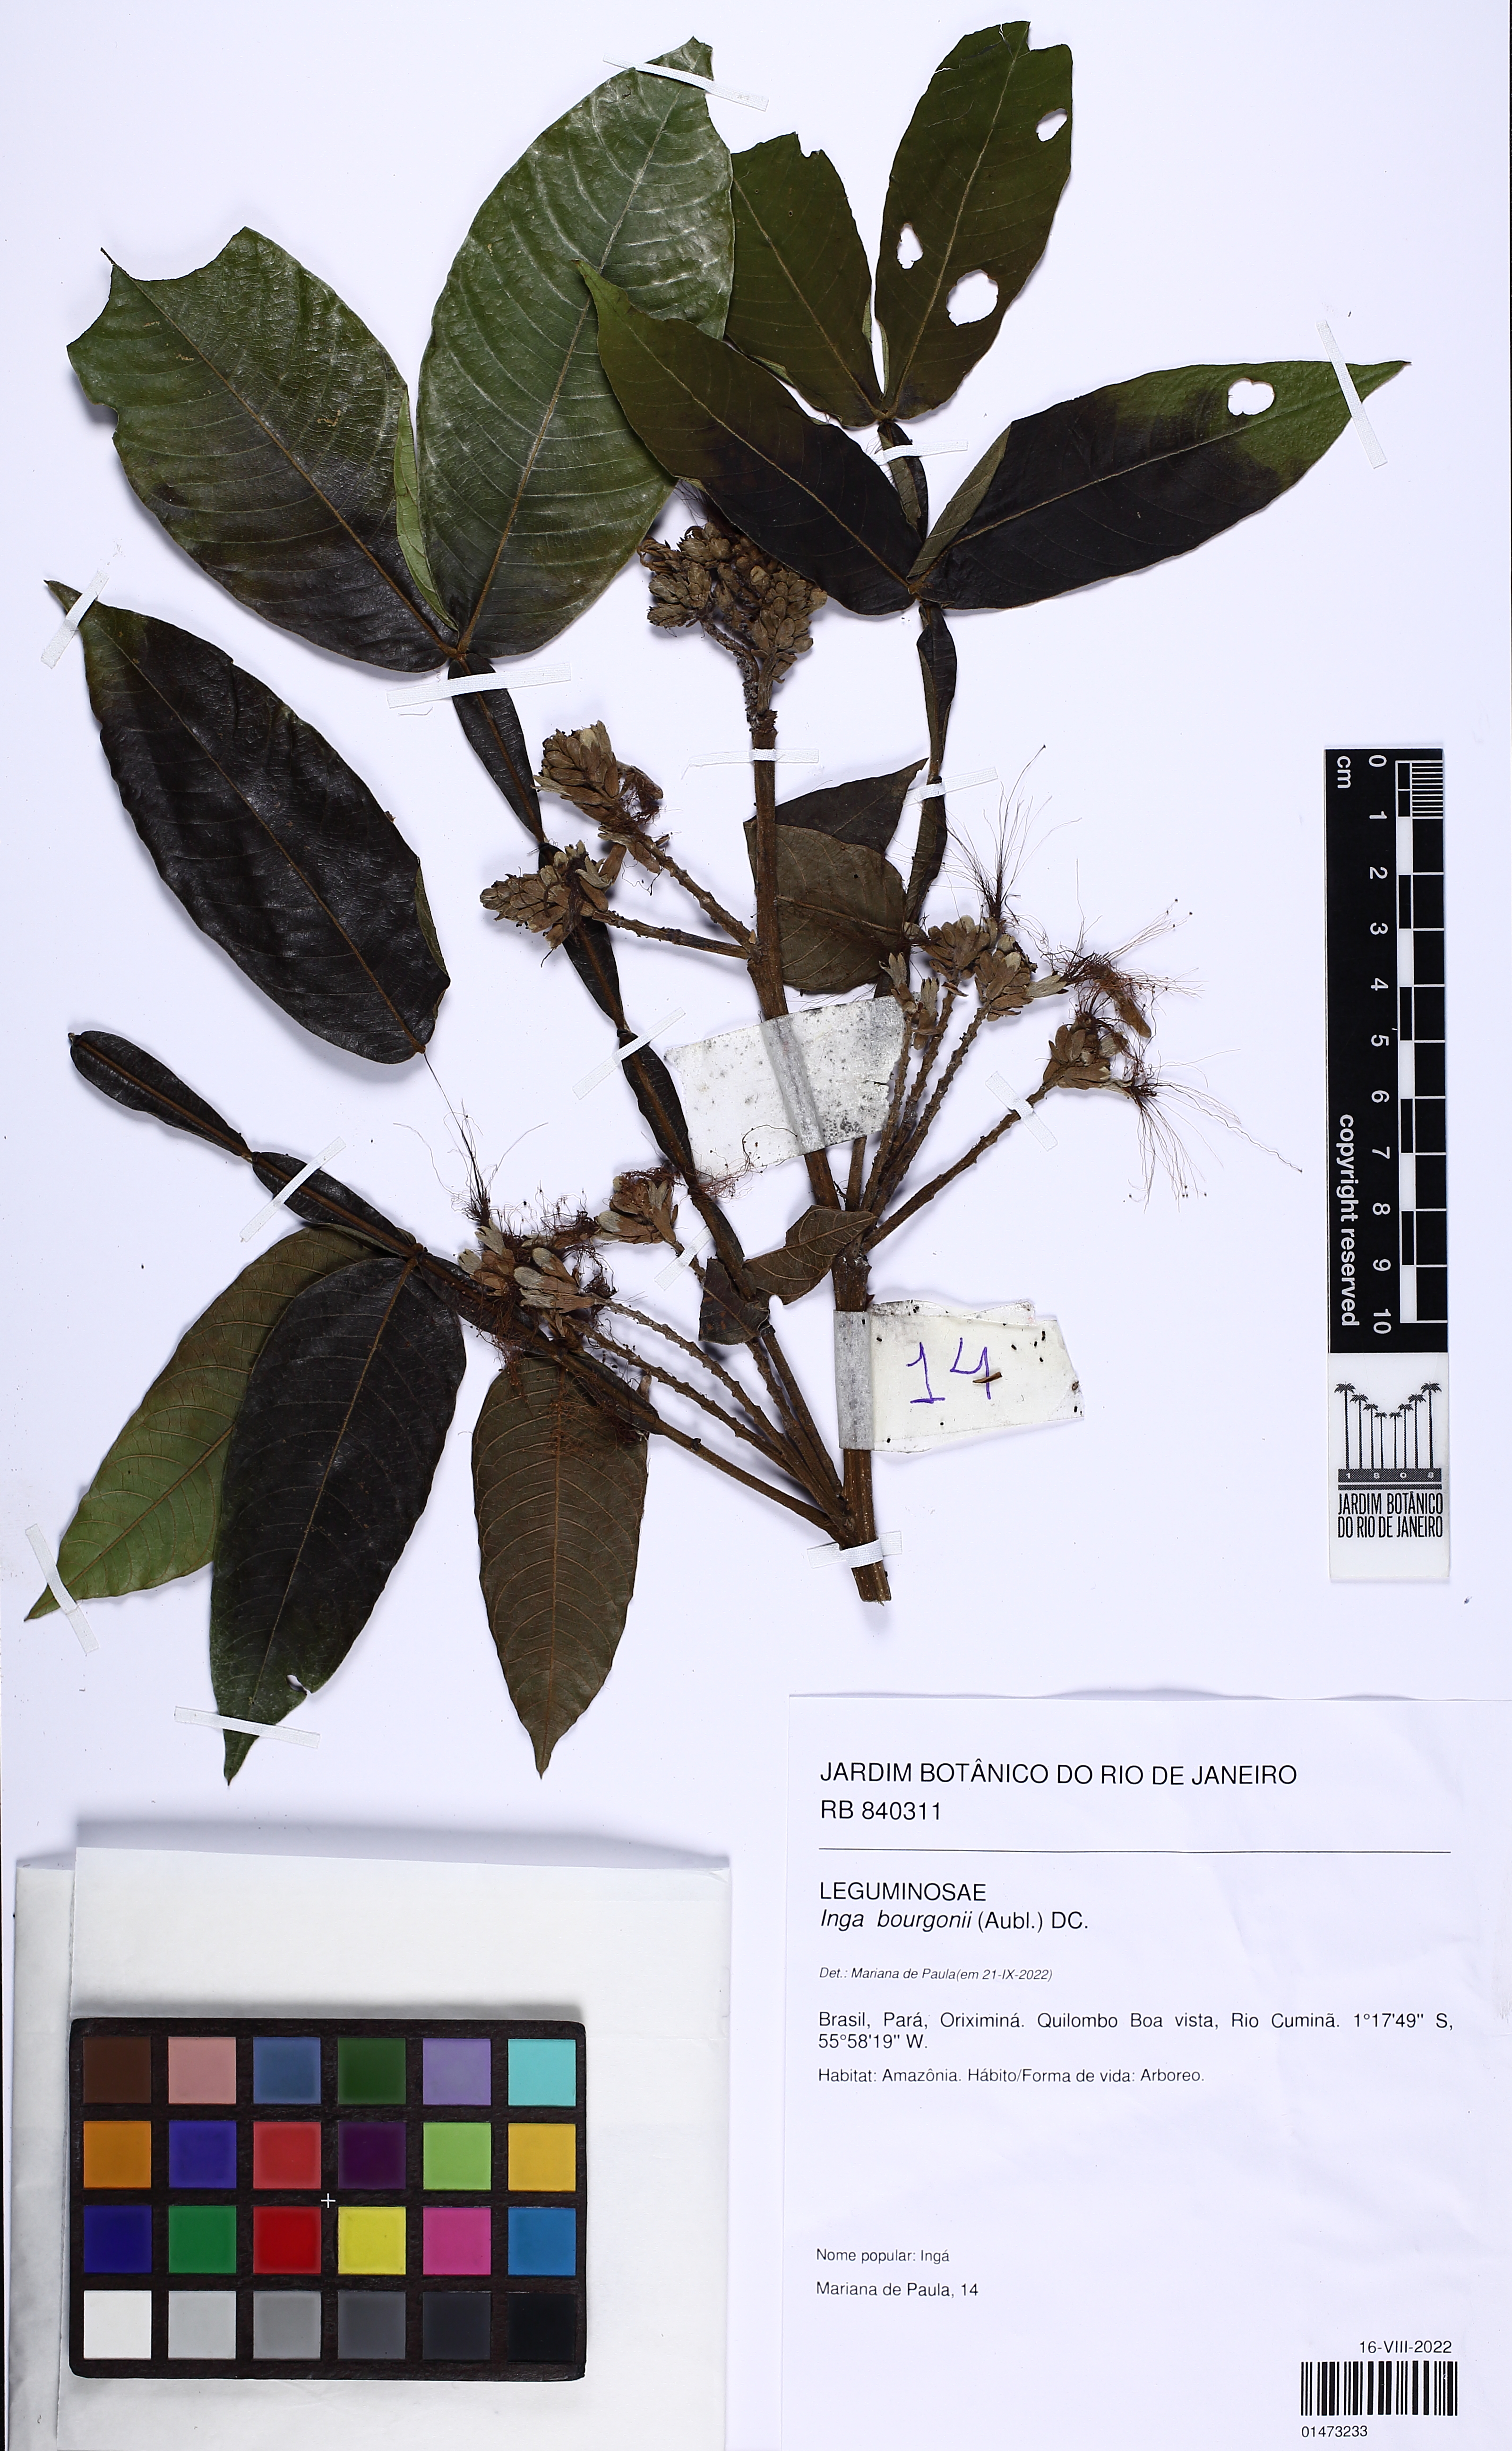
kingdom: Plantae
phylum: Tracheophyta
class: Magnoliopsida
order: Fabales
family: Fabaceae
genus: Inga
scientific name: Inga bourgoni
